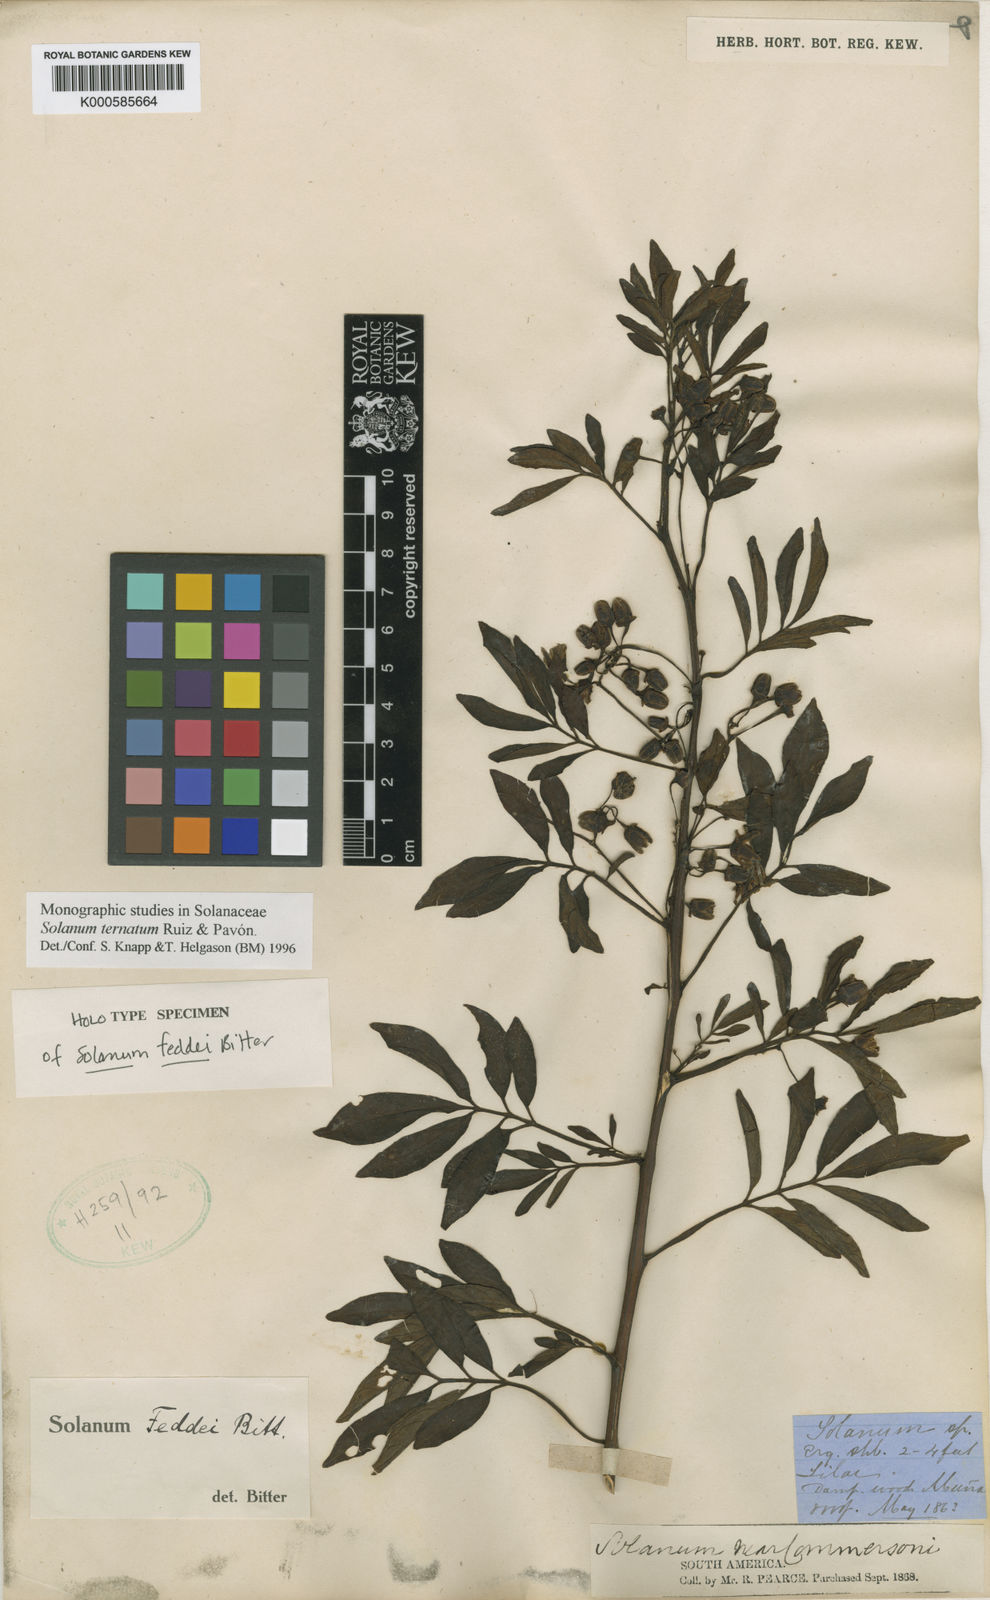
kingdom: Plantae
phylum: Tracheophyta
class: Magnoliopsida
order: Solanales
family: Solanaceae
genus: Solanum
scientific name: Solanum ternatum
